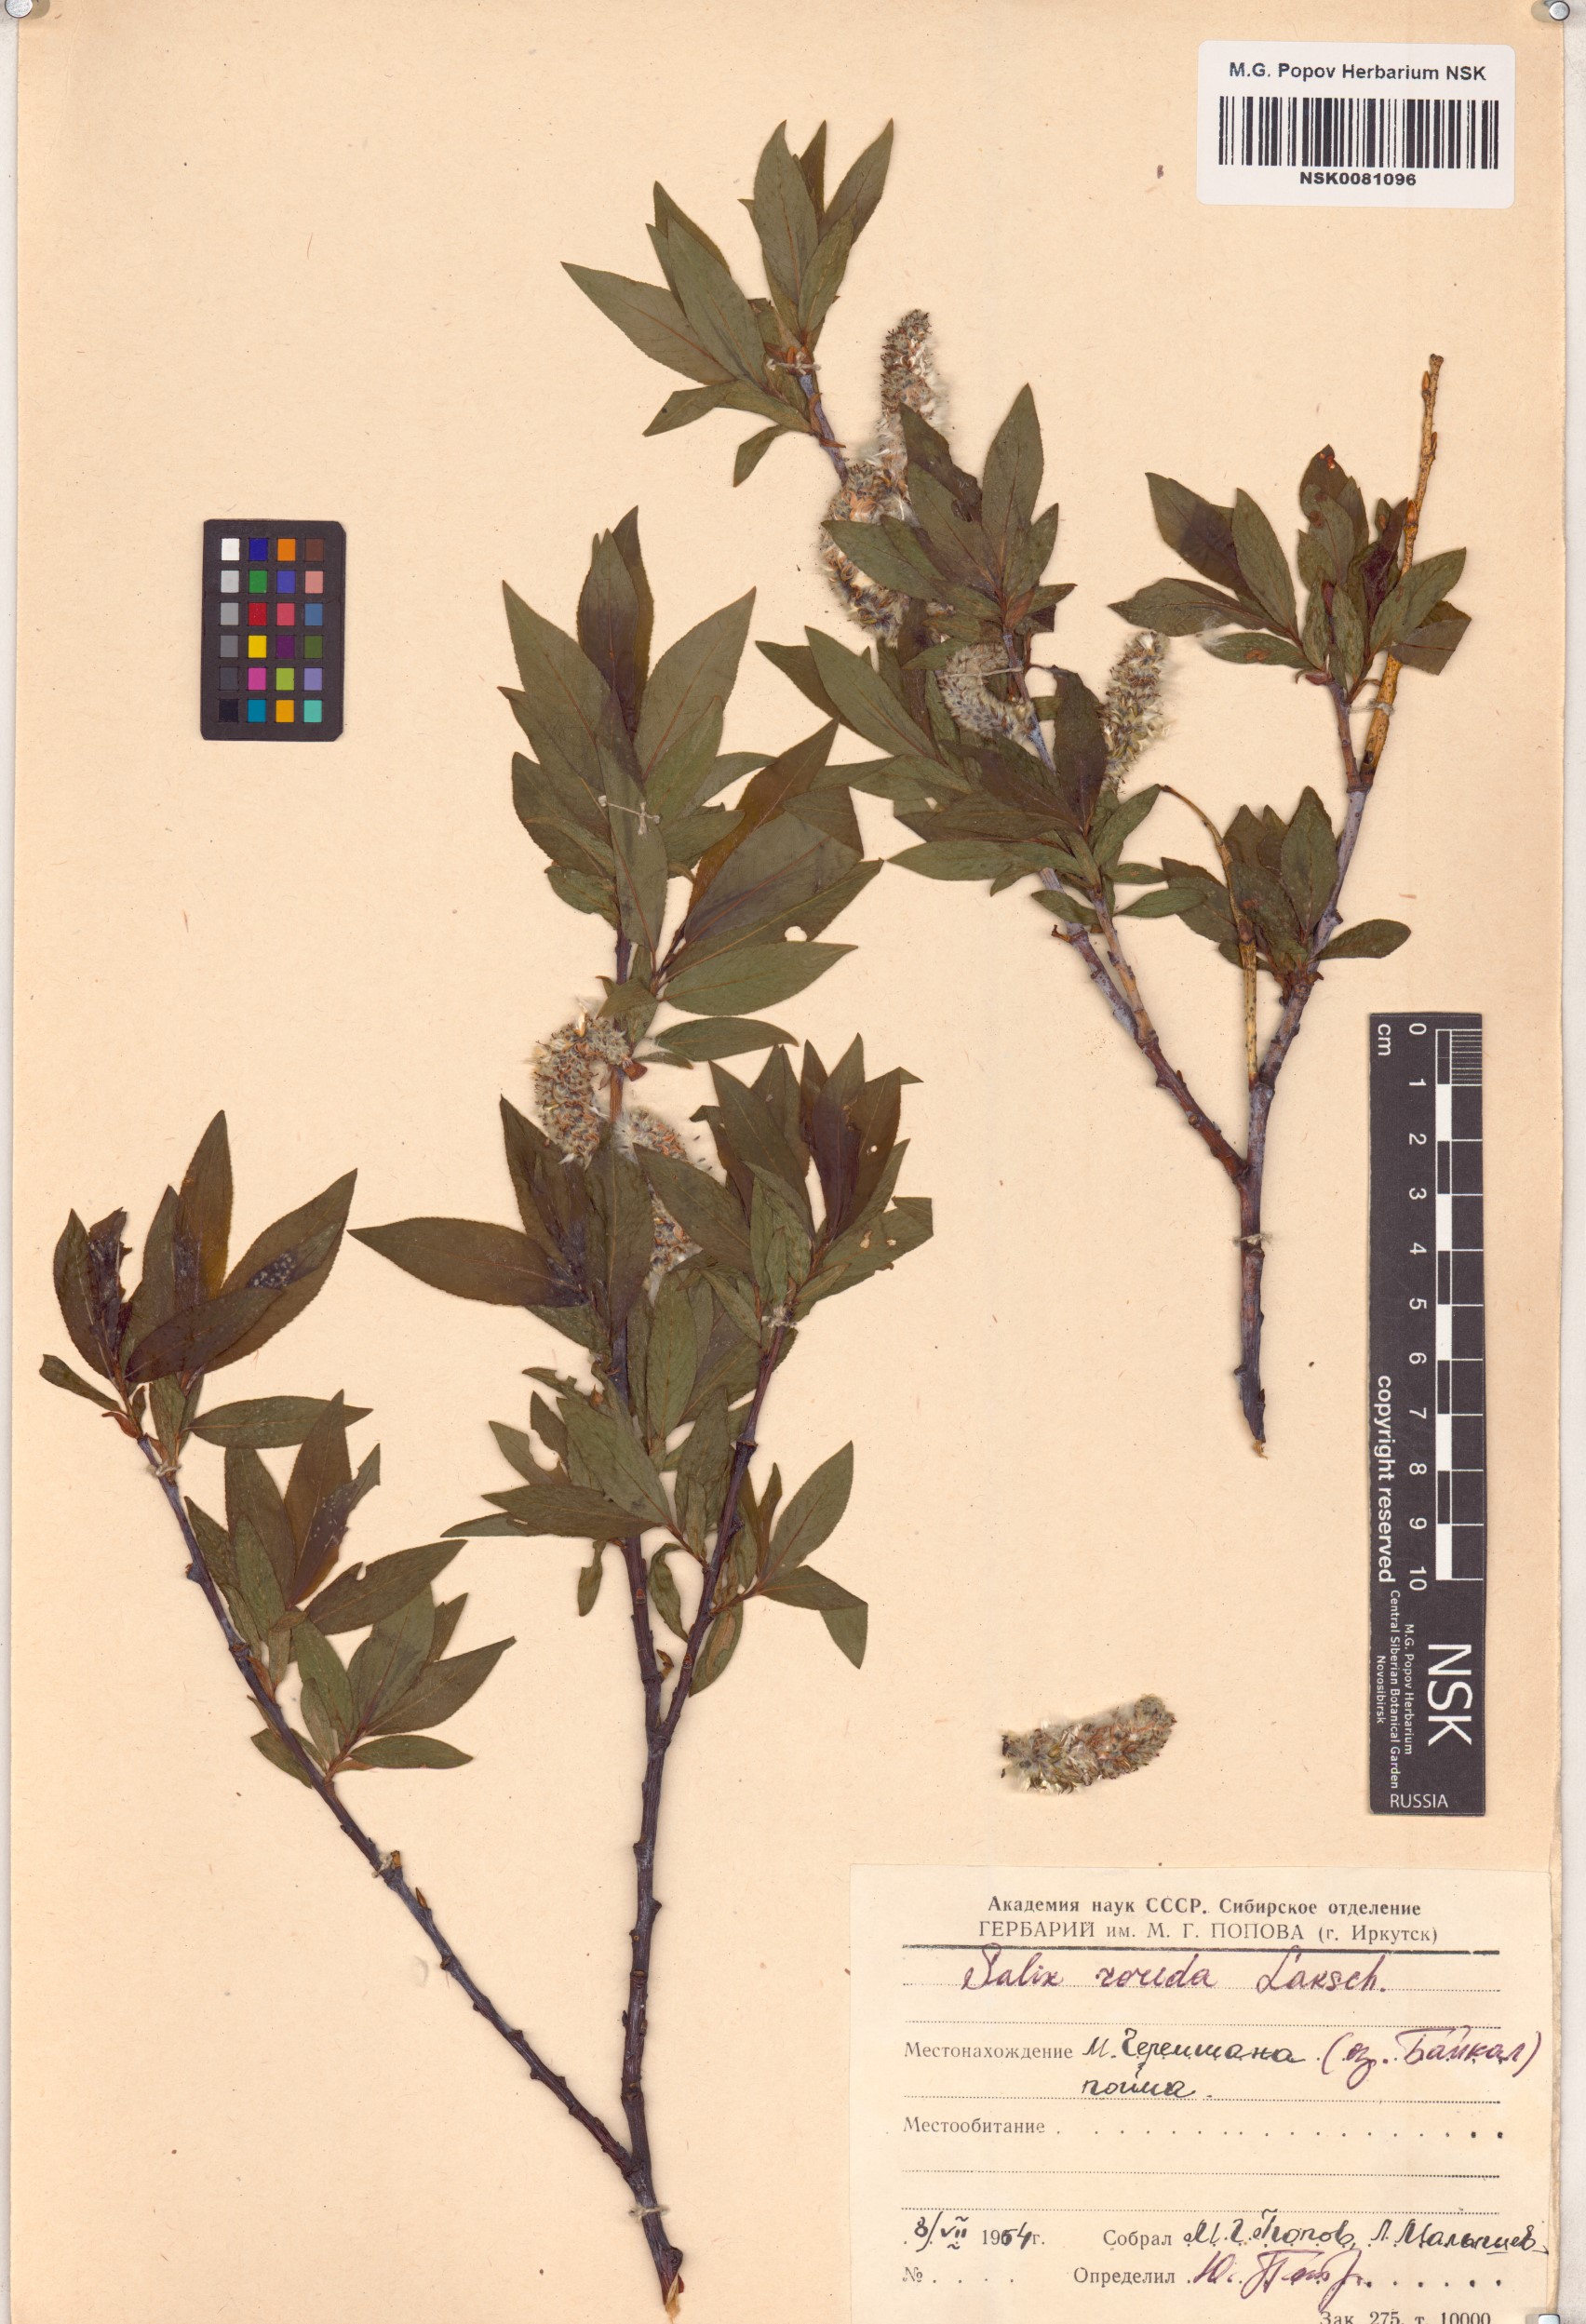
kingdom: Plantae
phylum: Tracheophyta
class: Magnoliopsida
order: Malpighiales
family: Salicaceae
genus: Salix
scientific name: Salix rorida
